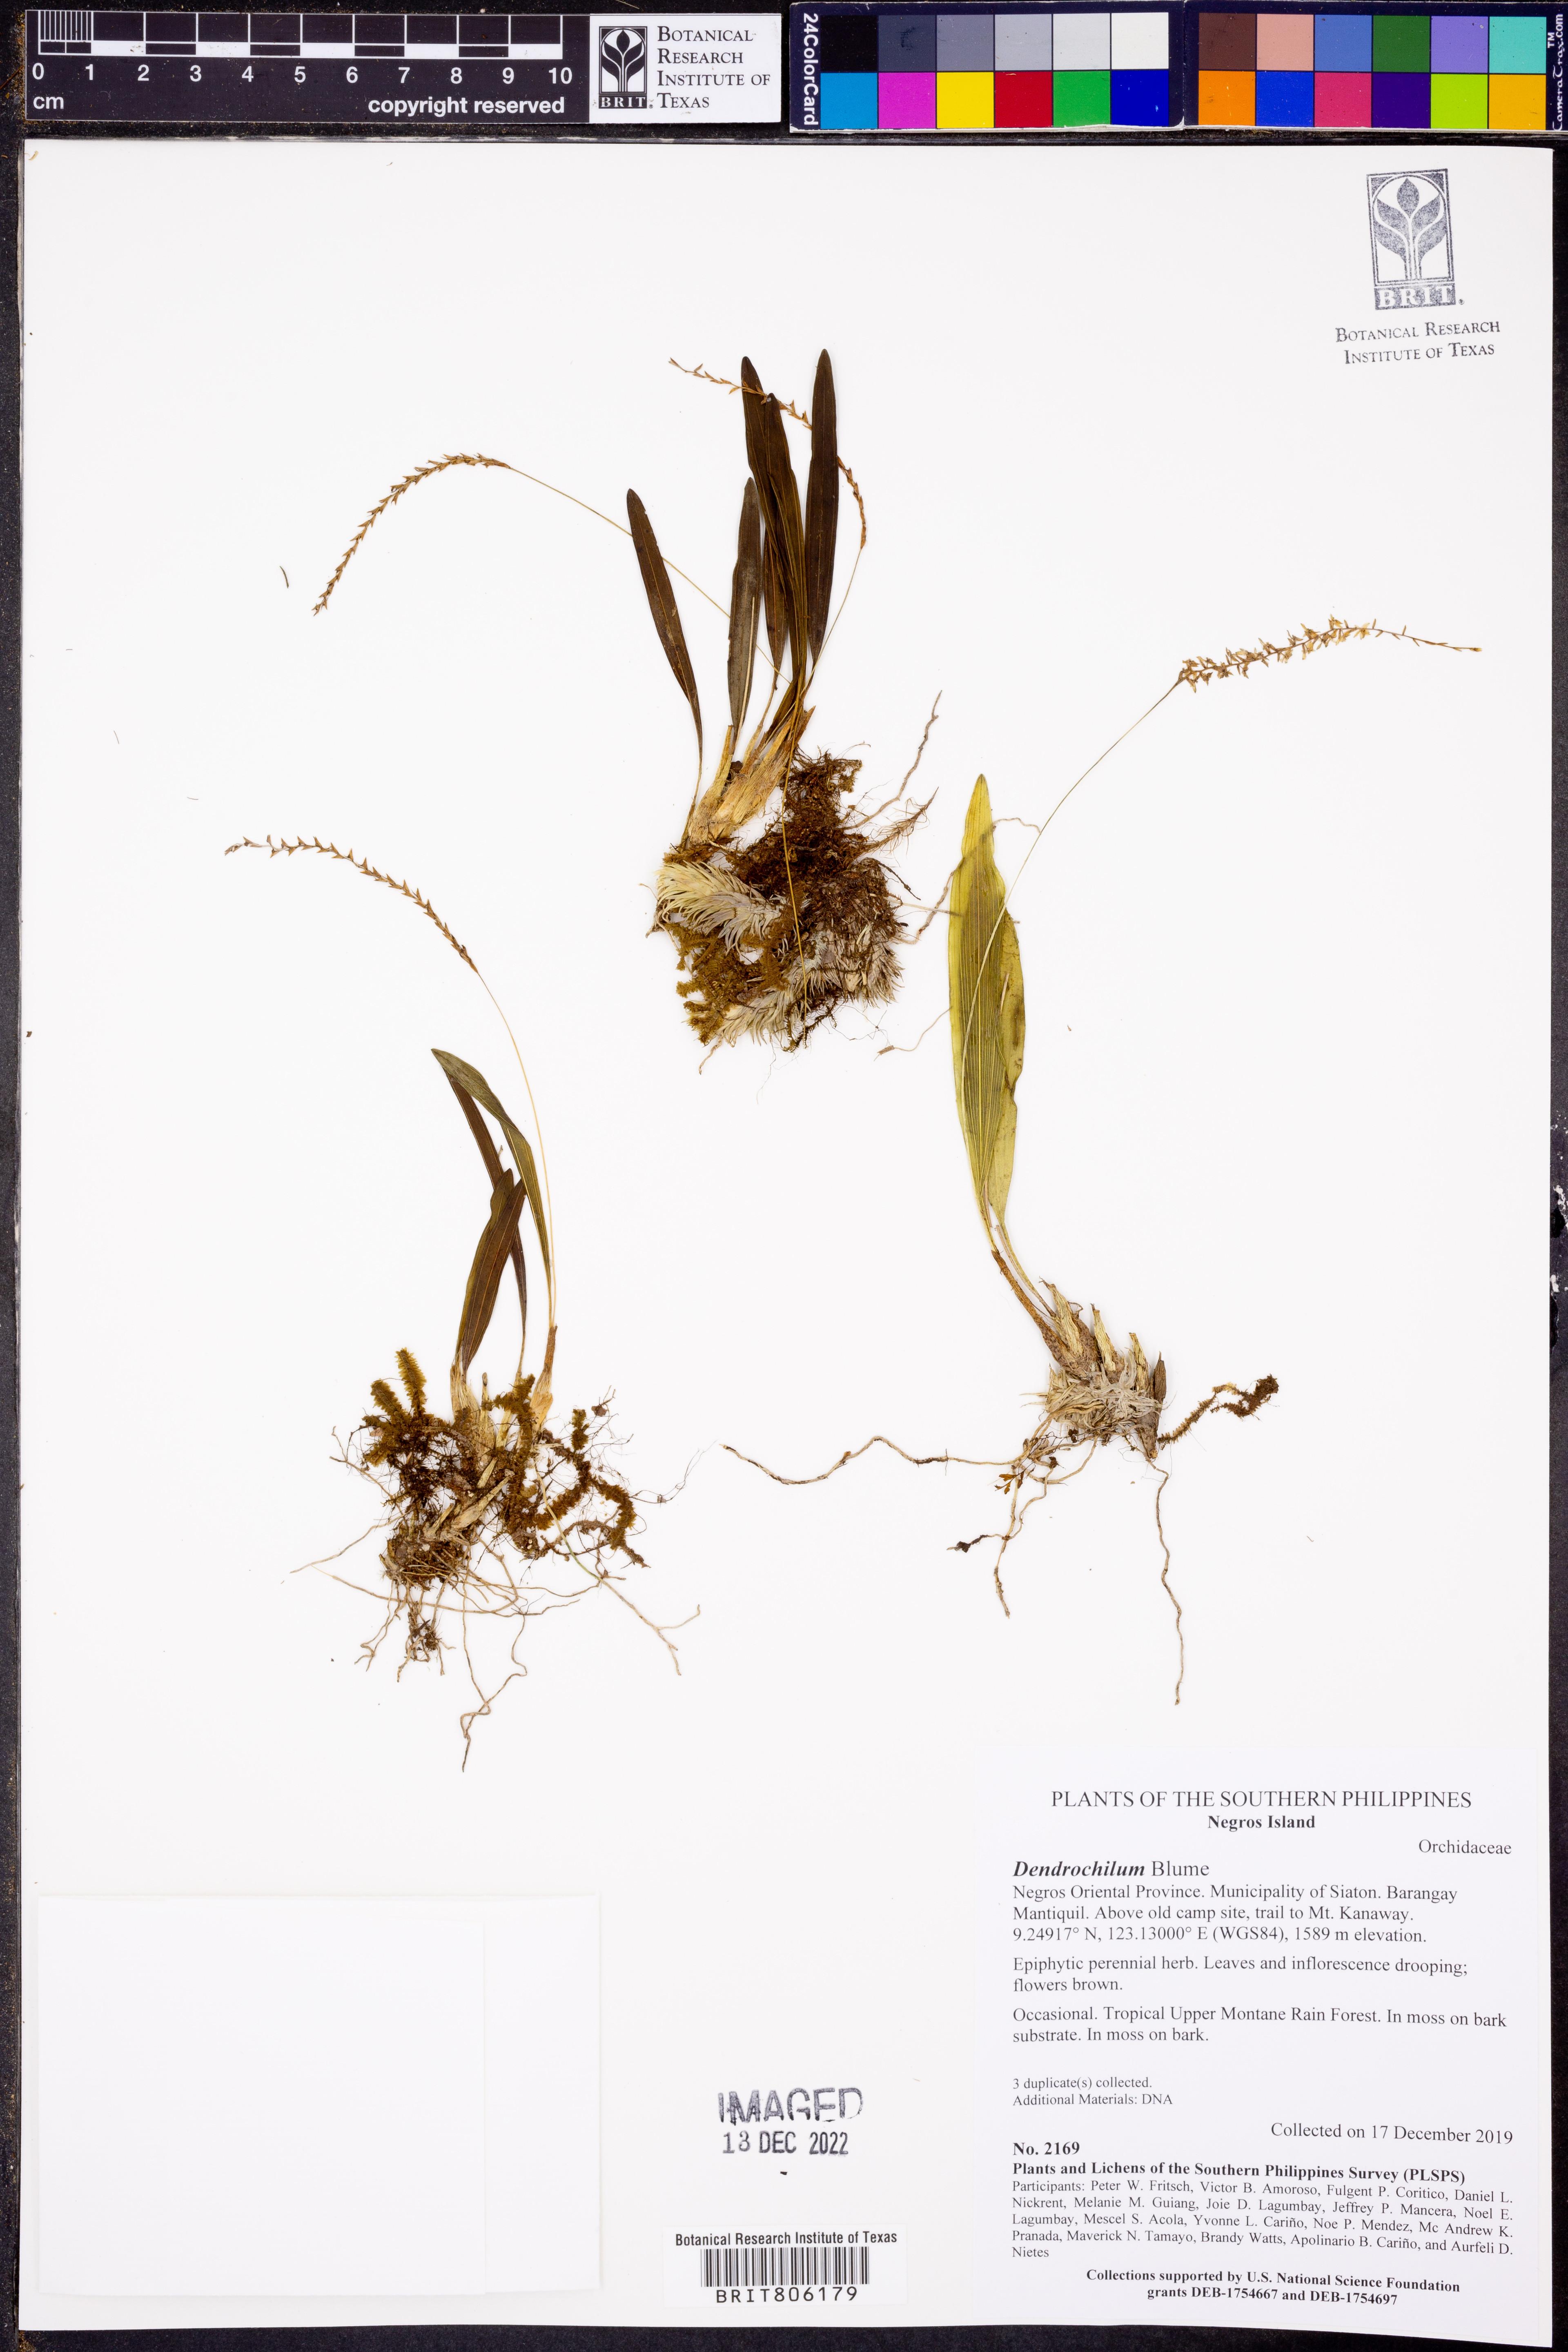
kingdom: Plantae
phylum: Tracheophyta
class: Liliopsida
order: Asparagales
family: Orchidaceae
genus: Coelogyne
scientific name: Coelogyne
